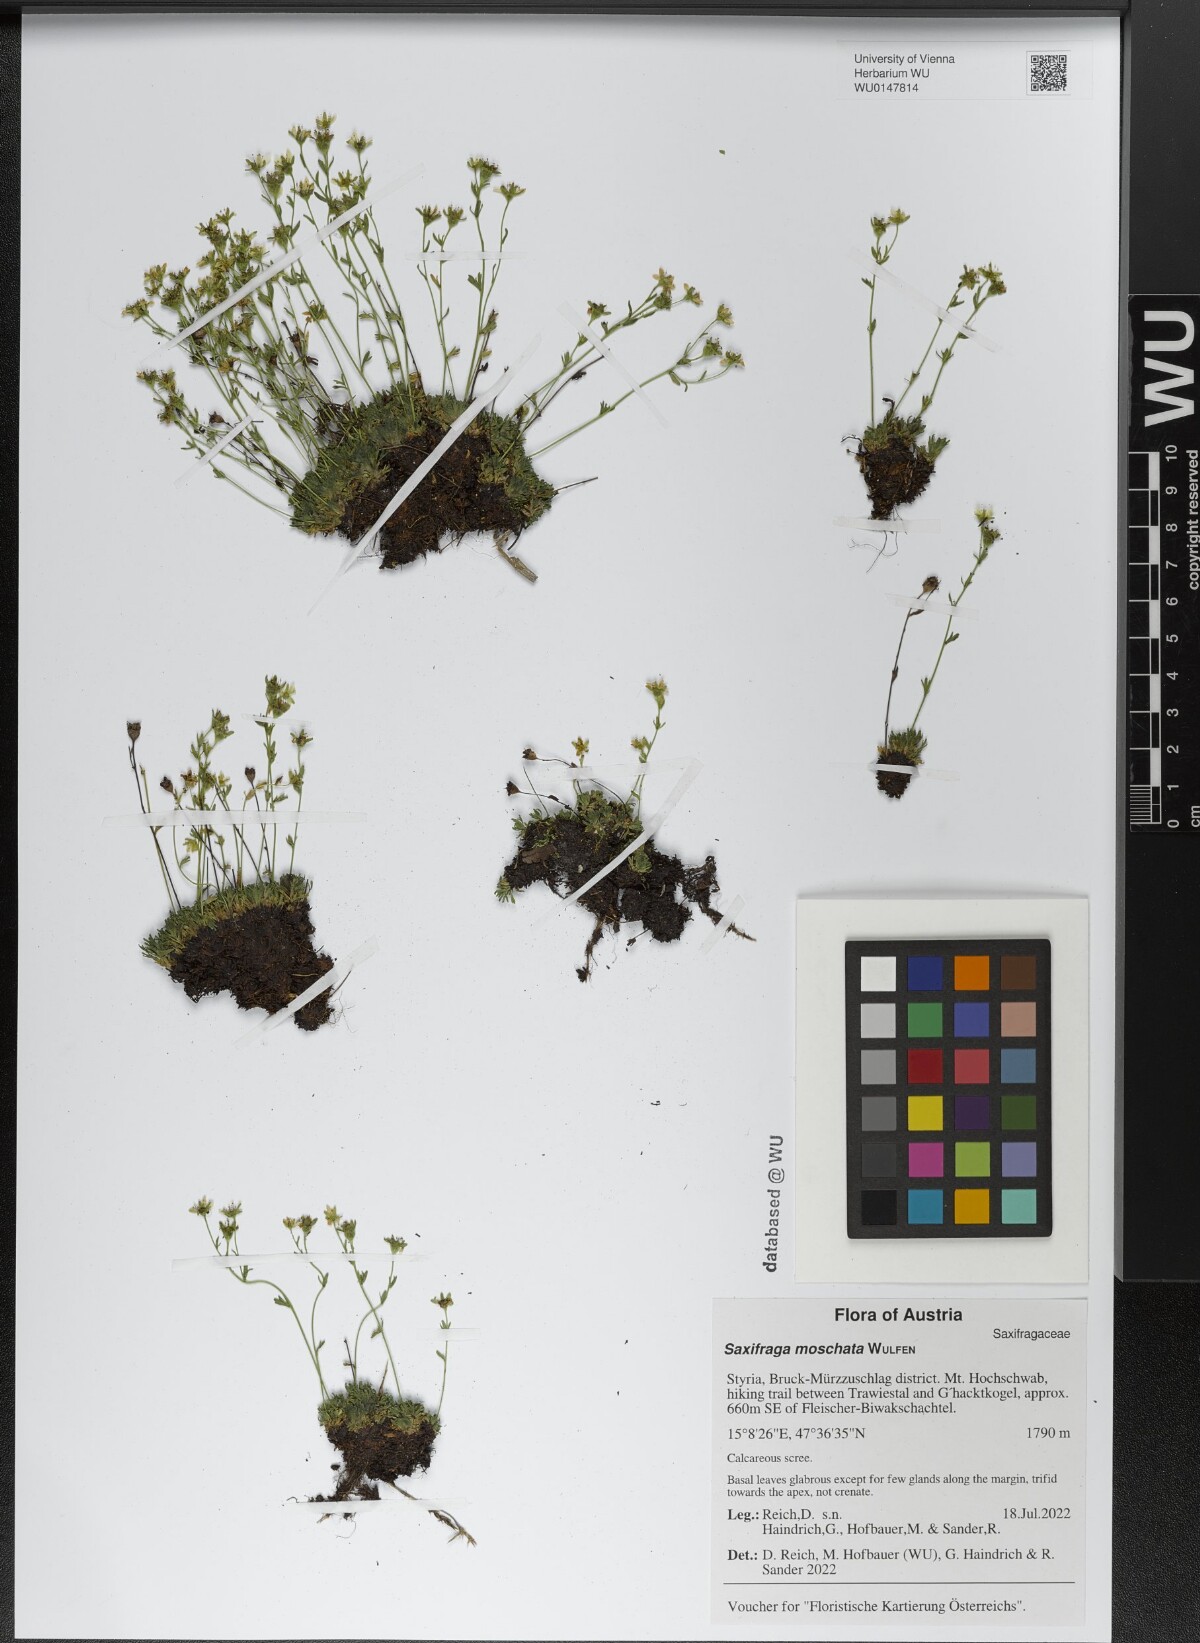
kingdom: Plantae
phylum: Tracheophyta
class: Magnoliopsida
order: Saxifragales
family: Saxifragaceae
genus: Saxifraga
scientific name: Saxifraga moschata
